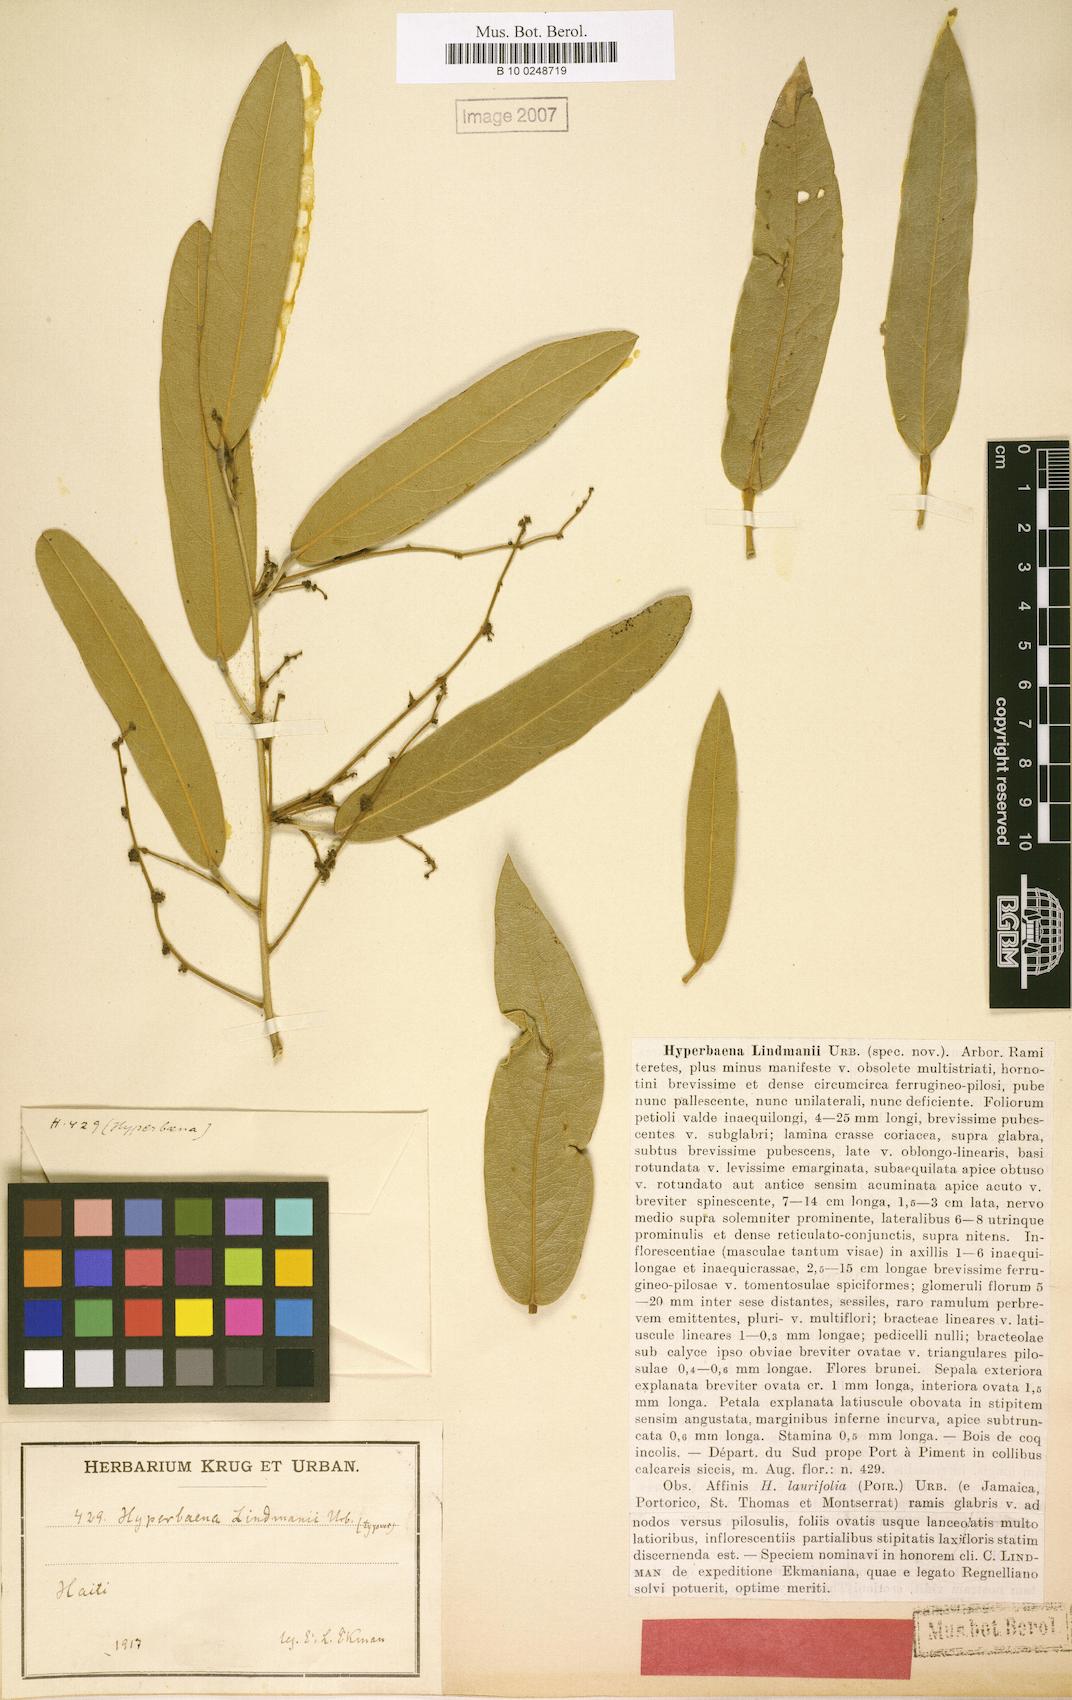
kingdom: Plantae
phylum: Tracheophyta
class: Magnoliopsida
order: Ranunculales
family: Menispermaceae
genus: Hyperbaena
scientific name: Hyperbaena lindmanii
